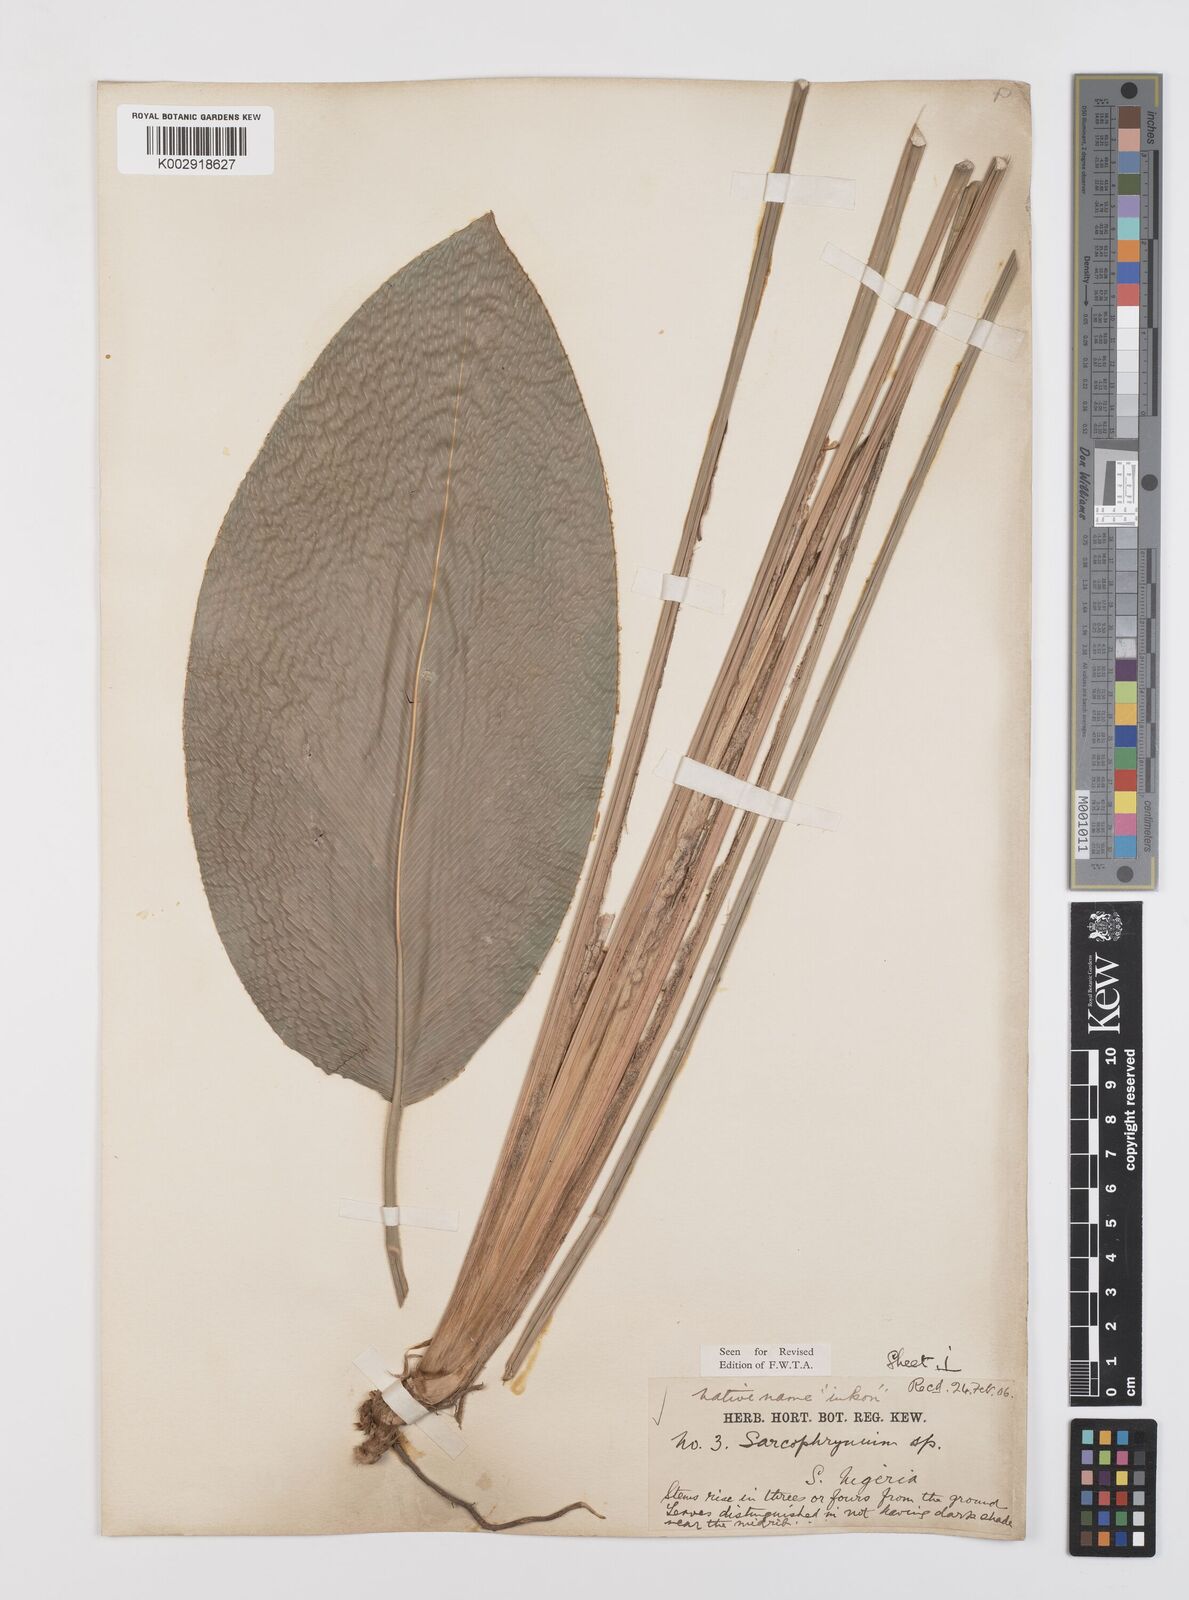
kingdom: Plantae
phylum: Tracheophyta
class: Liliopsida
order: Zingiberales
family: Marantaceae
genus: Sarcophrynium
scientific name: Sarcophrynium brachystachyum
